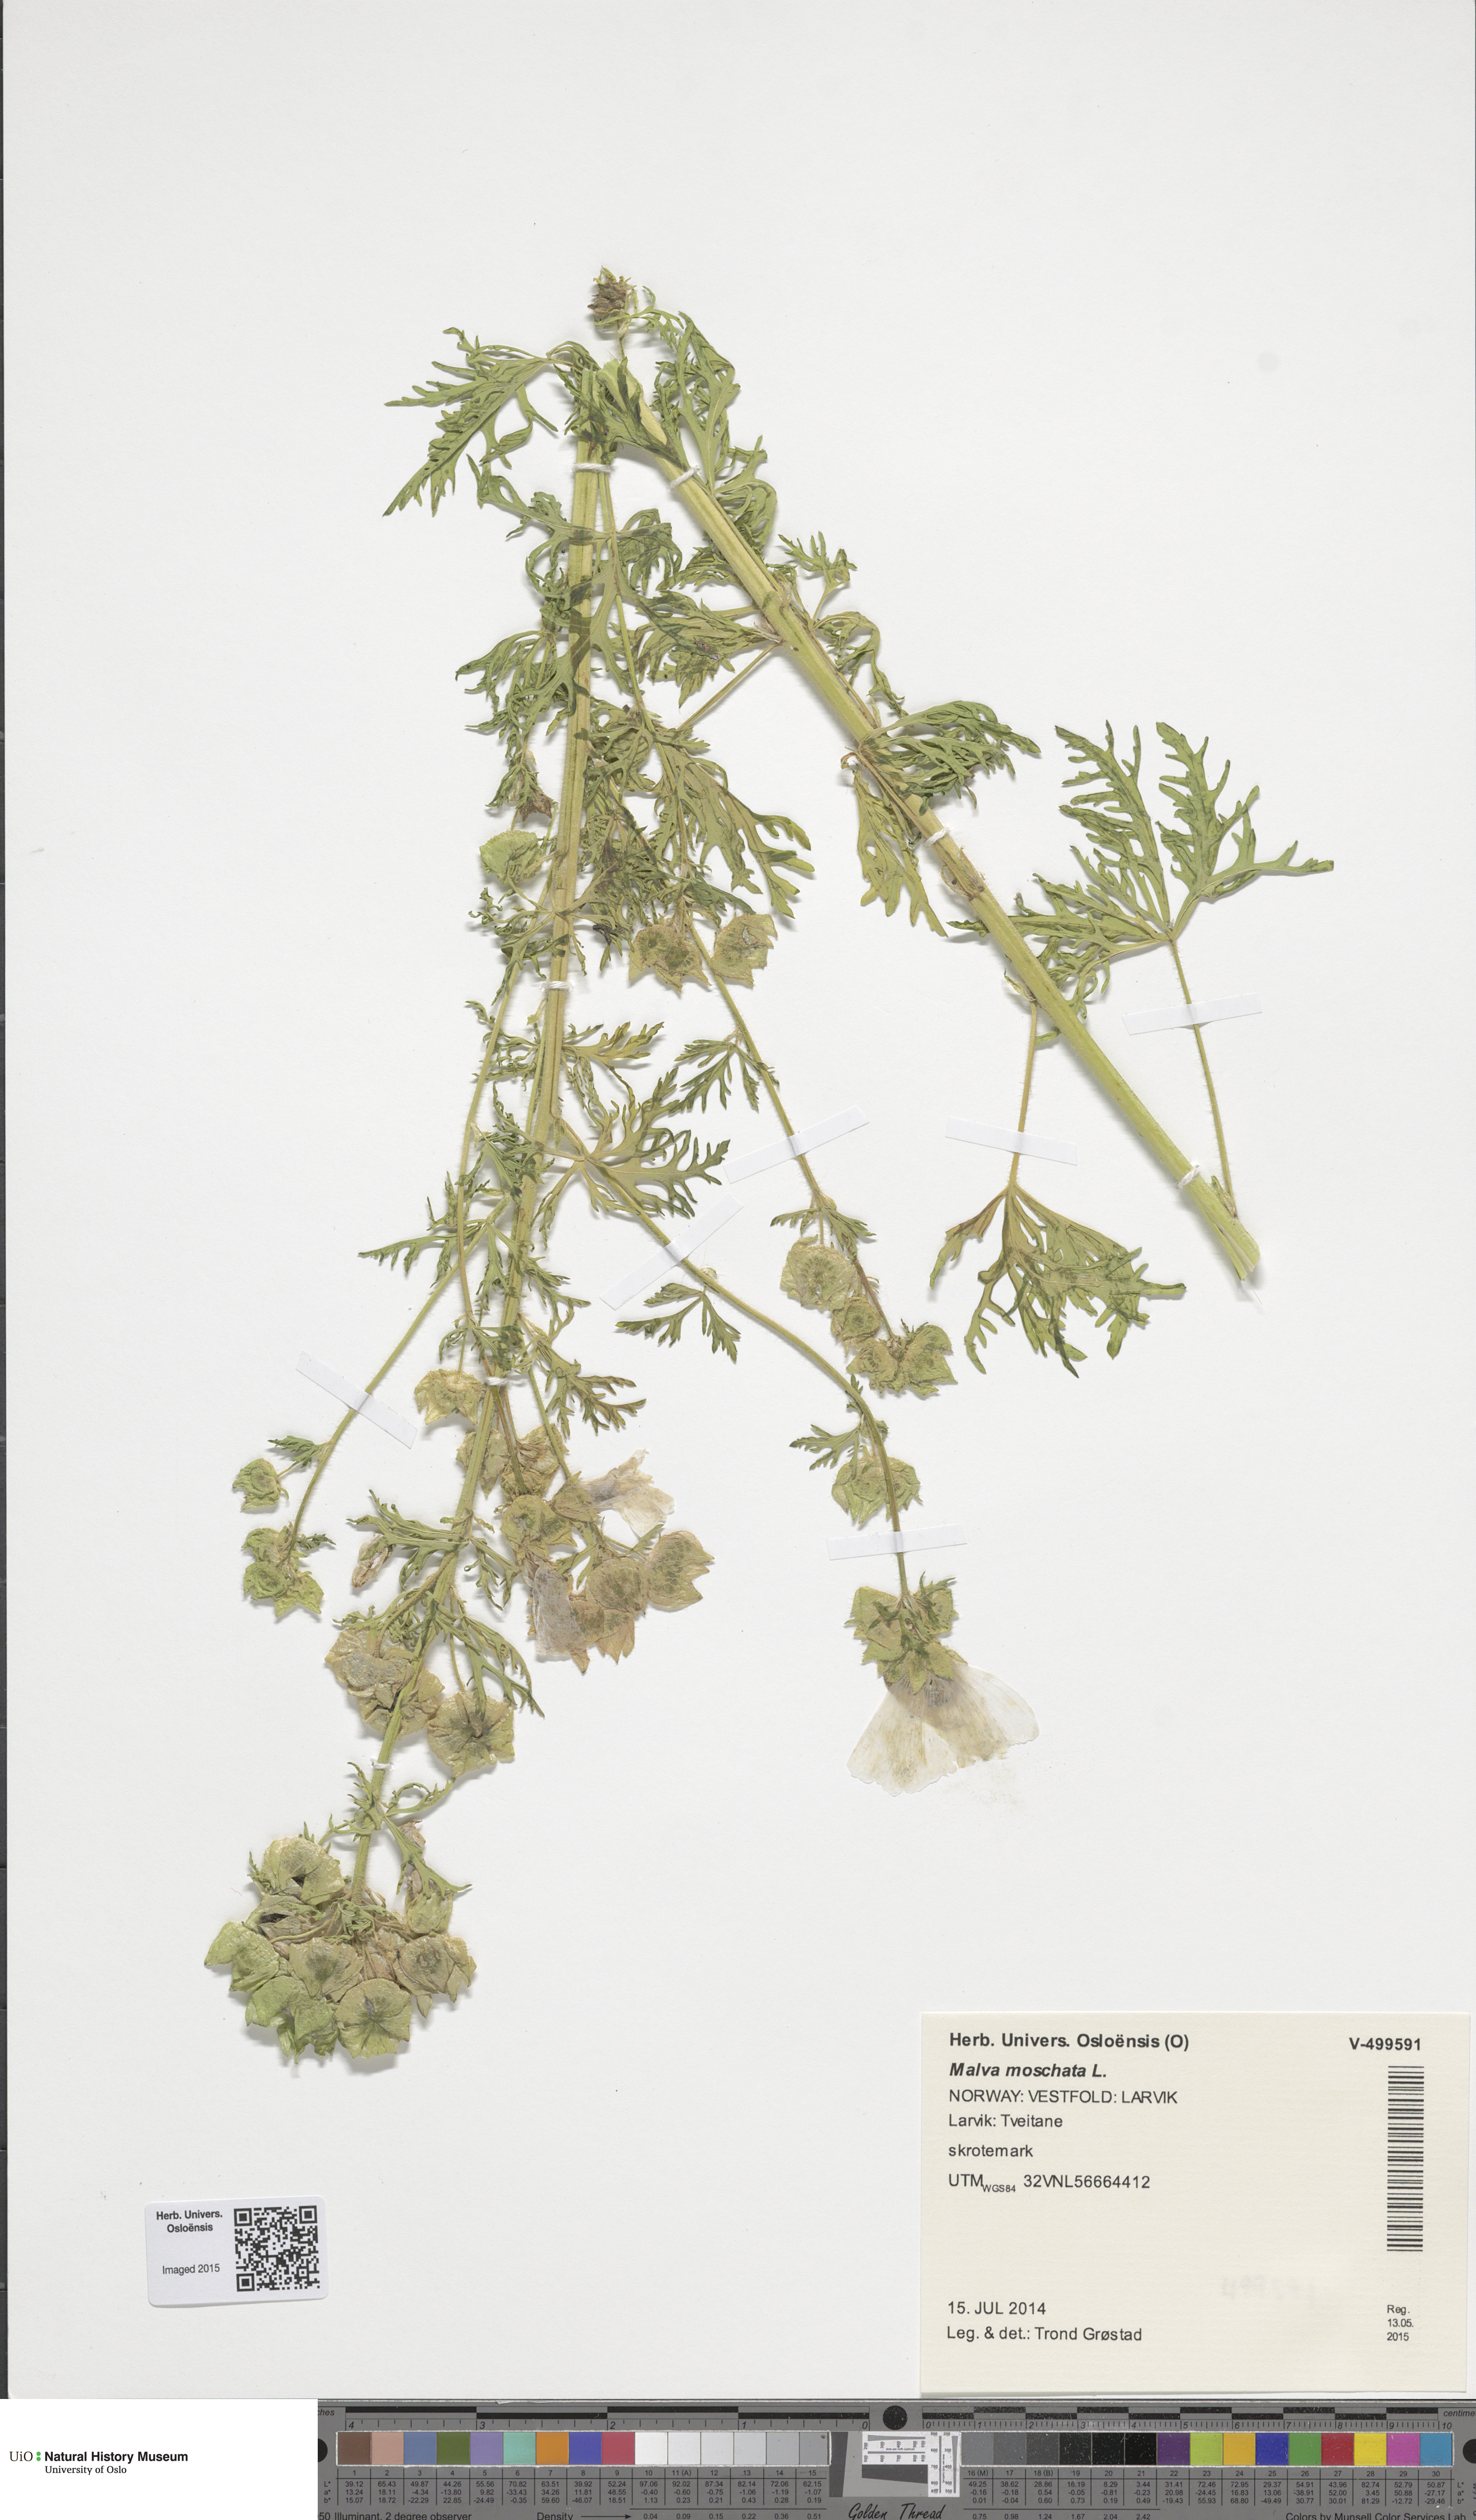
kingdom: Plantae
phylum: Tracheophyta
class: Magnoliopsida
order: Malvales
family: Malvaceae
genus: Malva
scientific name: Malva moschata
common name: Musk mallow
